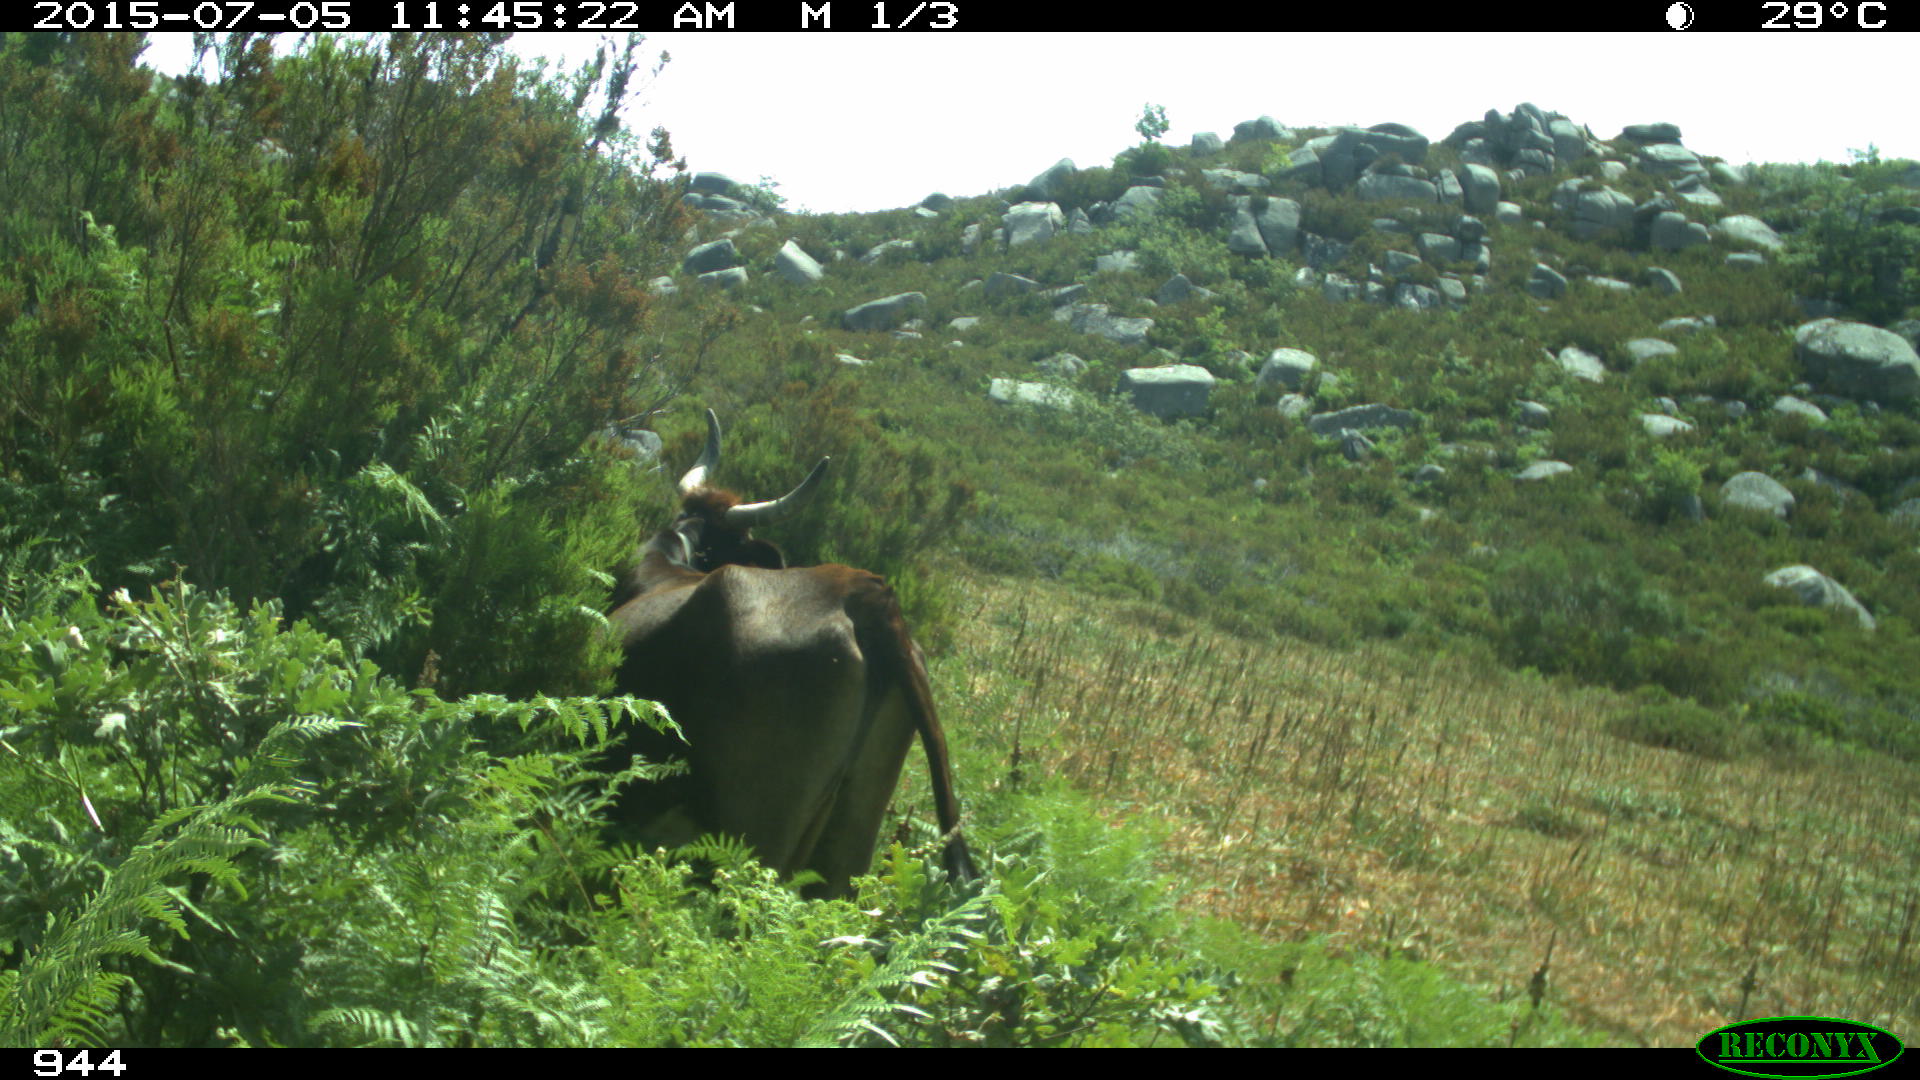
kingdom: Animalia
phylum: Chordata
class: Mammalia
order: Artiodactyla
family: Bovidae
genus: Bos
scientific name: Bos taurus
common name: Domesticated cattle
